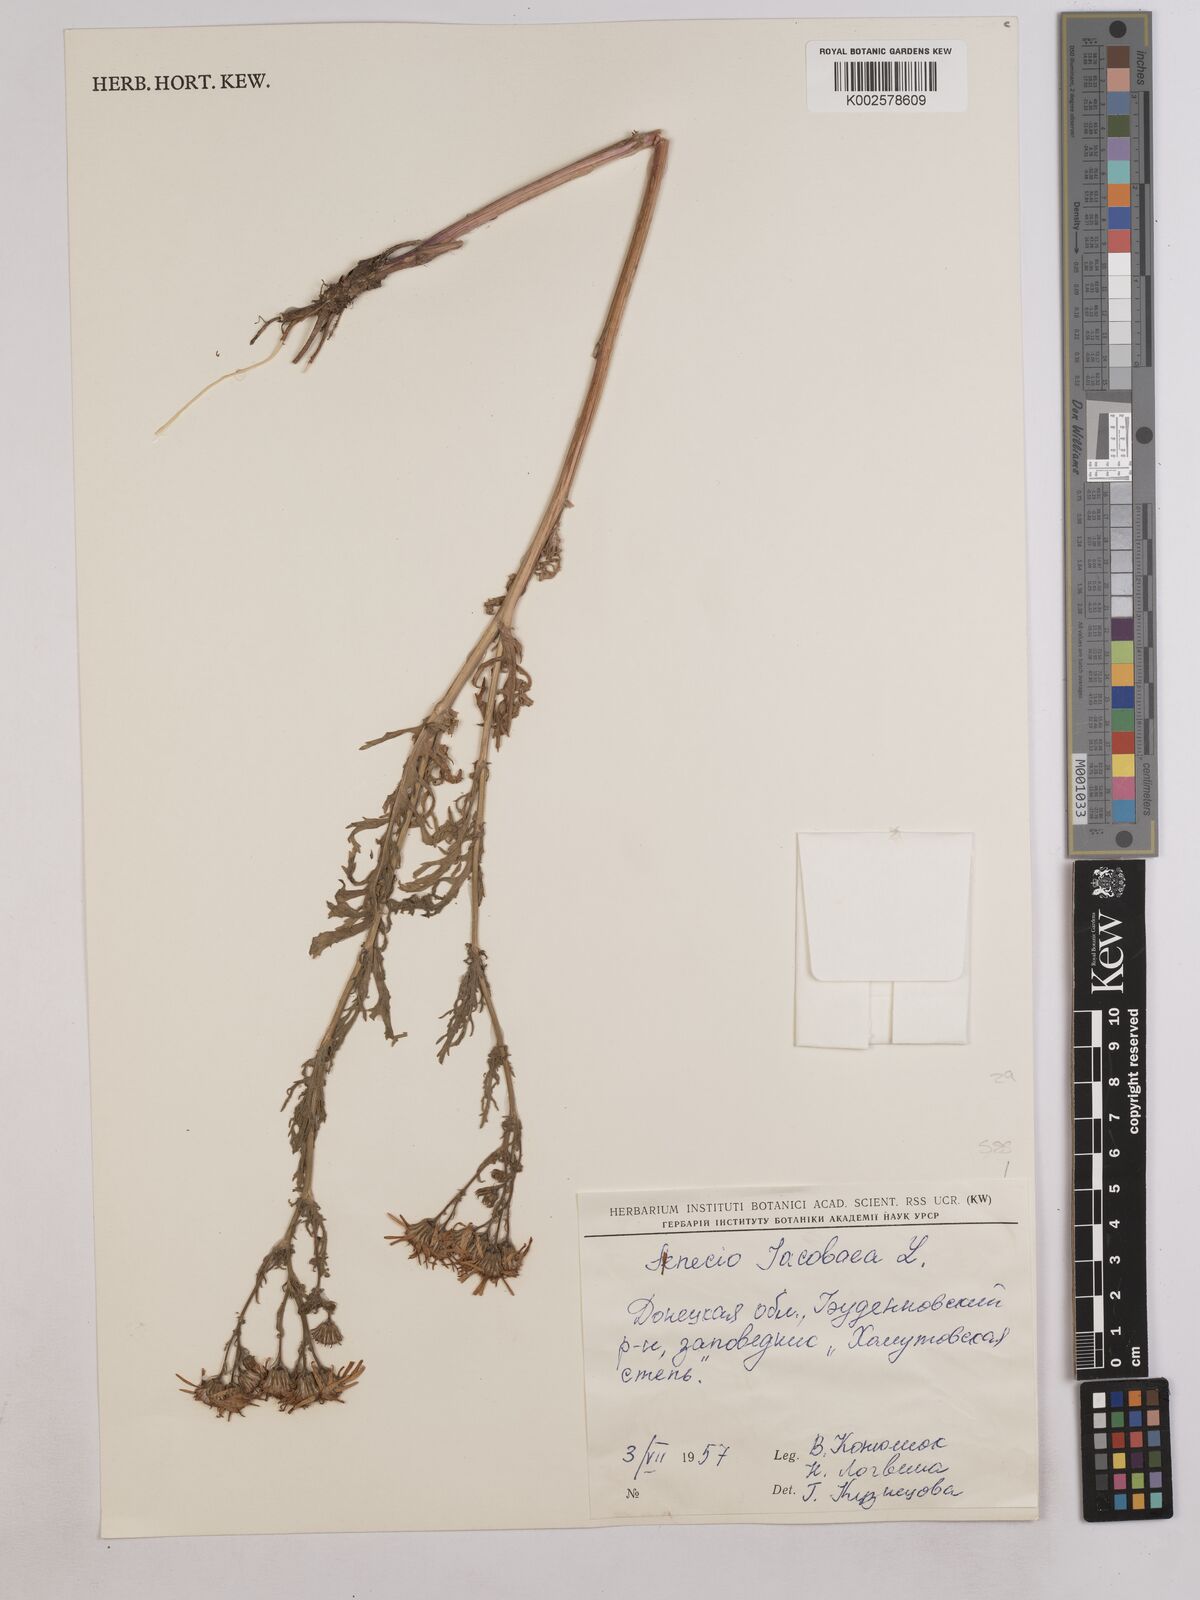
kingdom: Plantae
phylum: Tracheophyta
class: Magnoliopsida
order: Asterales
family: Asteraceae
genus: Jacobaea
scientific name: Jacobaea vulgaris
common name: Stinking willie
